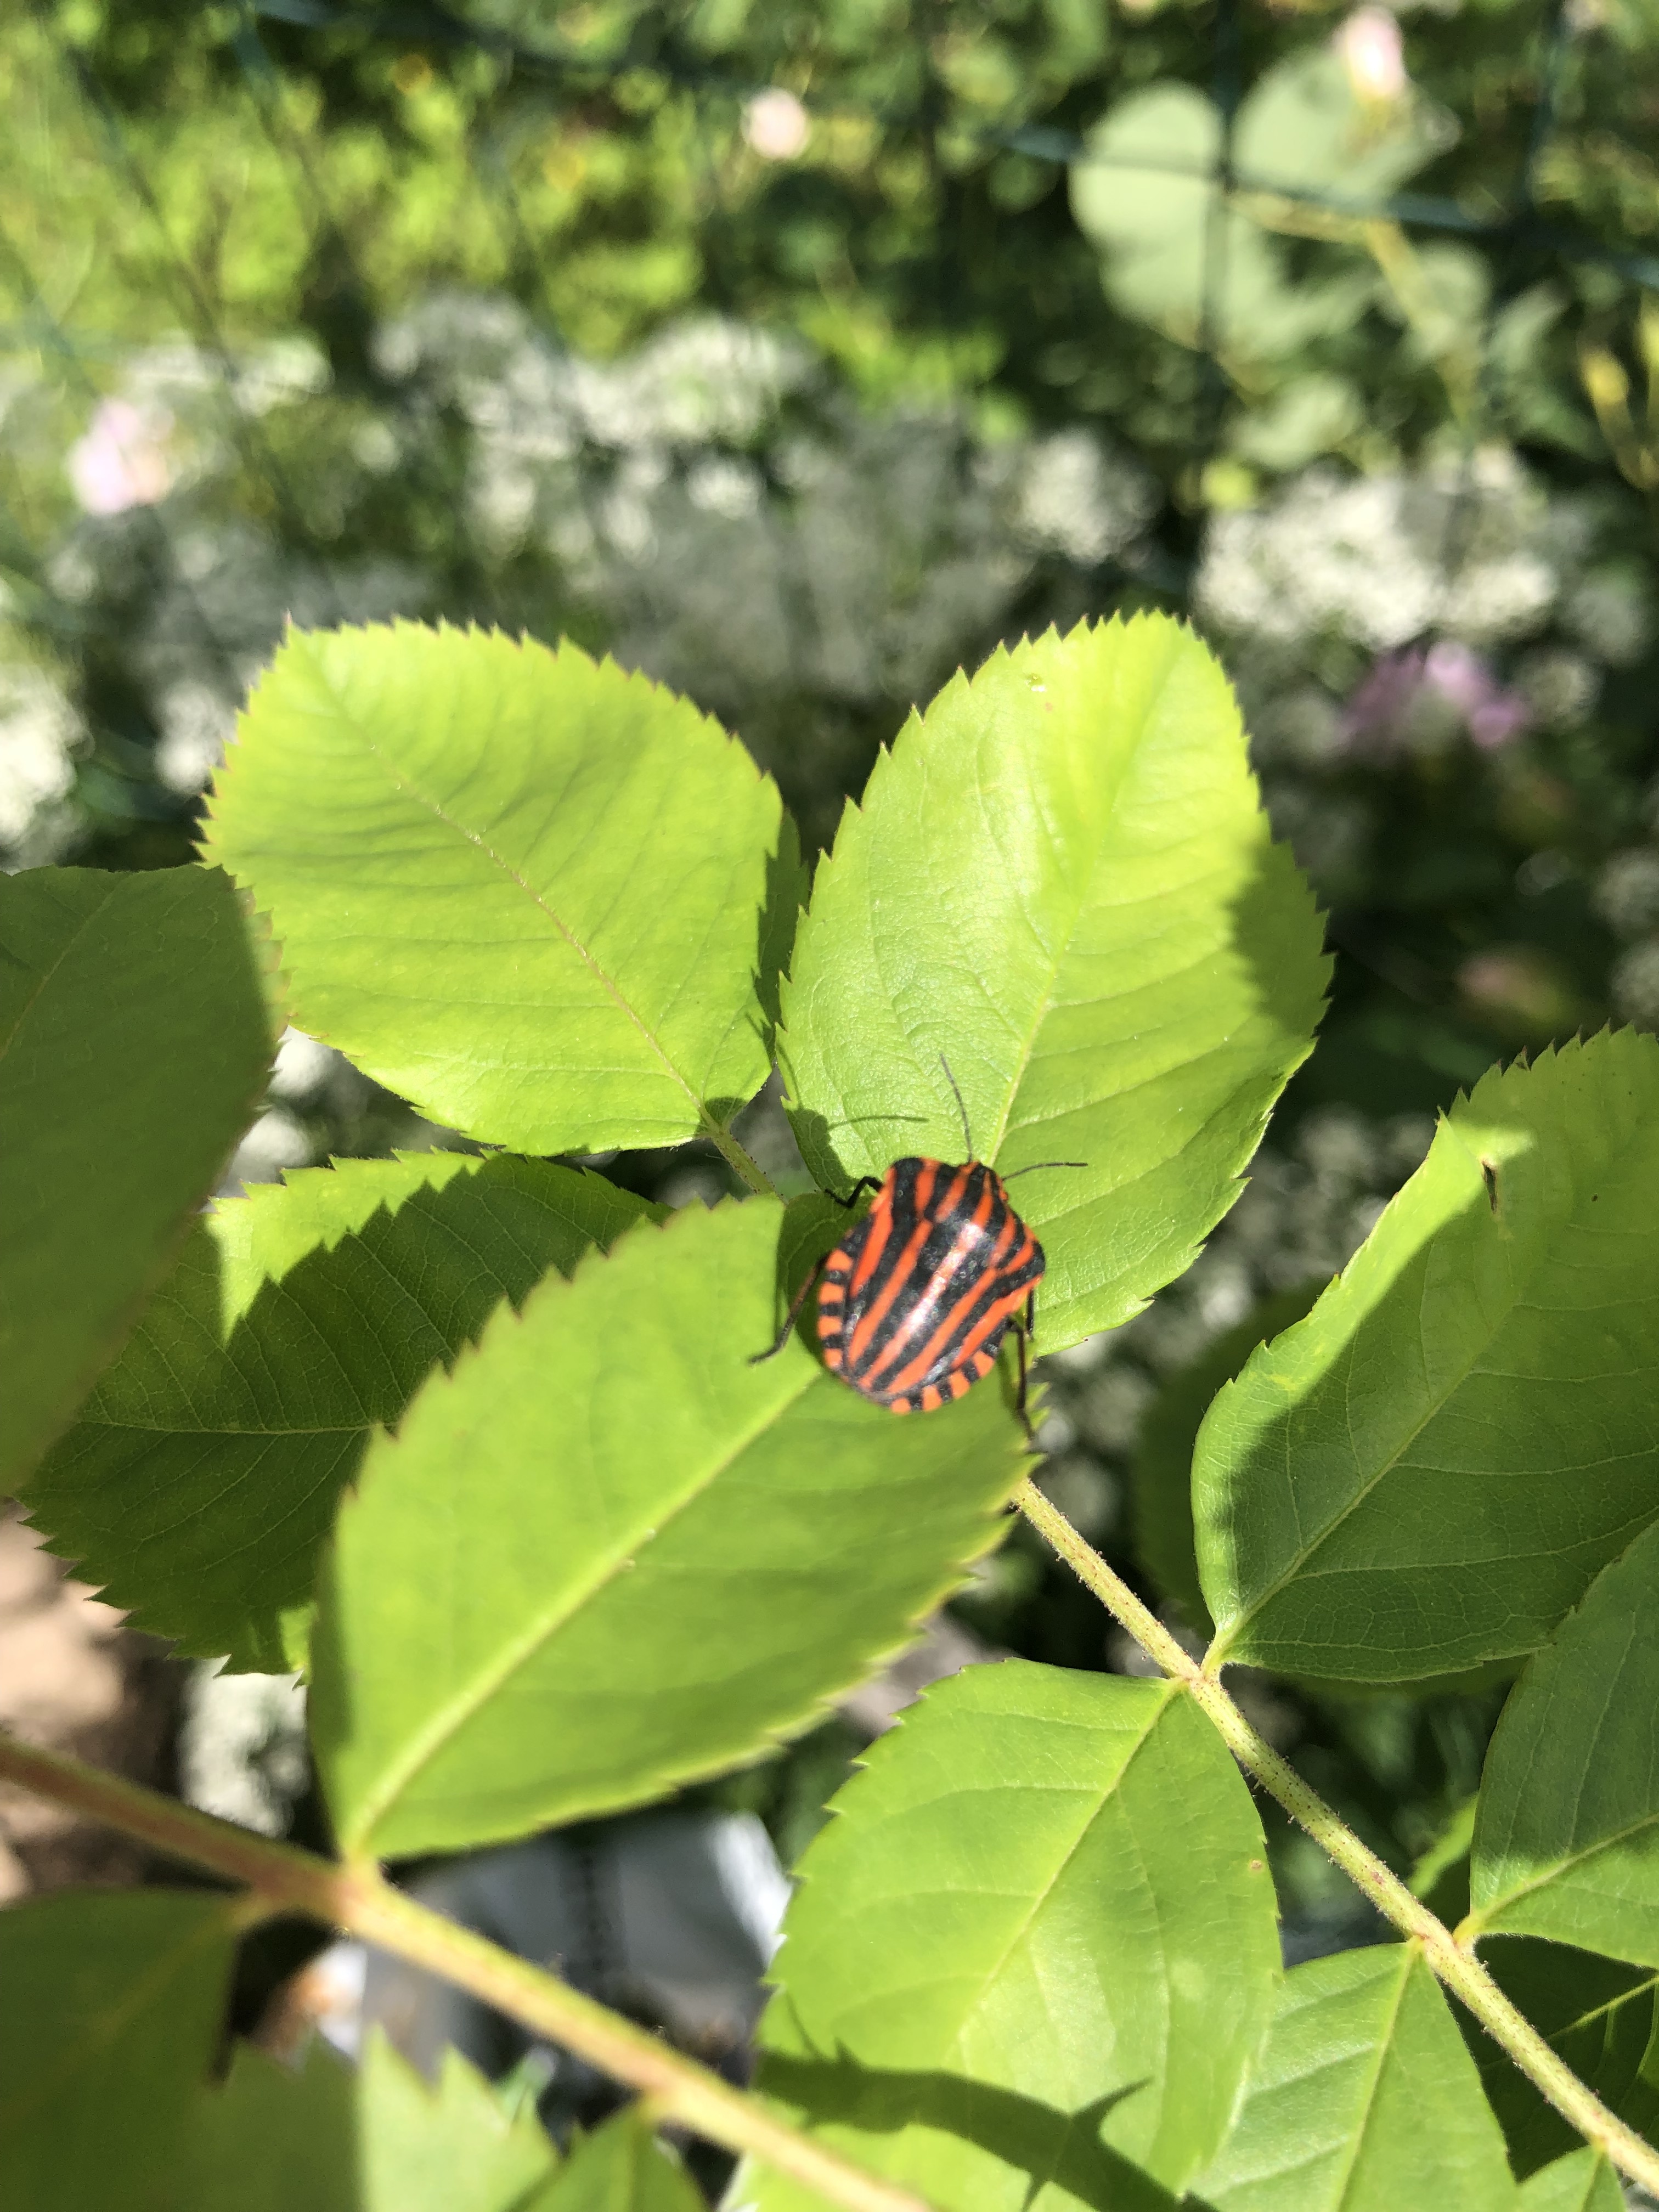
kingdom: Animalia
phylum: Arthropoda
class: Insecta
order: Hemiptera
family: Pentatomidae
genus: Graphosoma
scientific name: Graphosoma italicum
